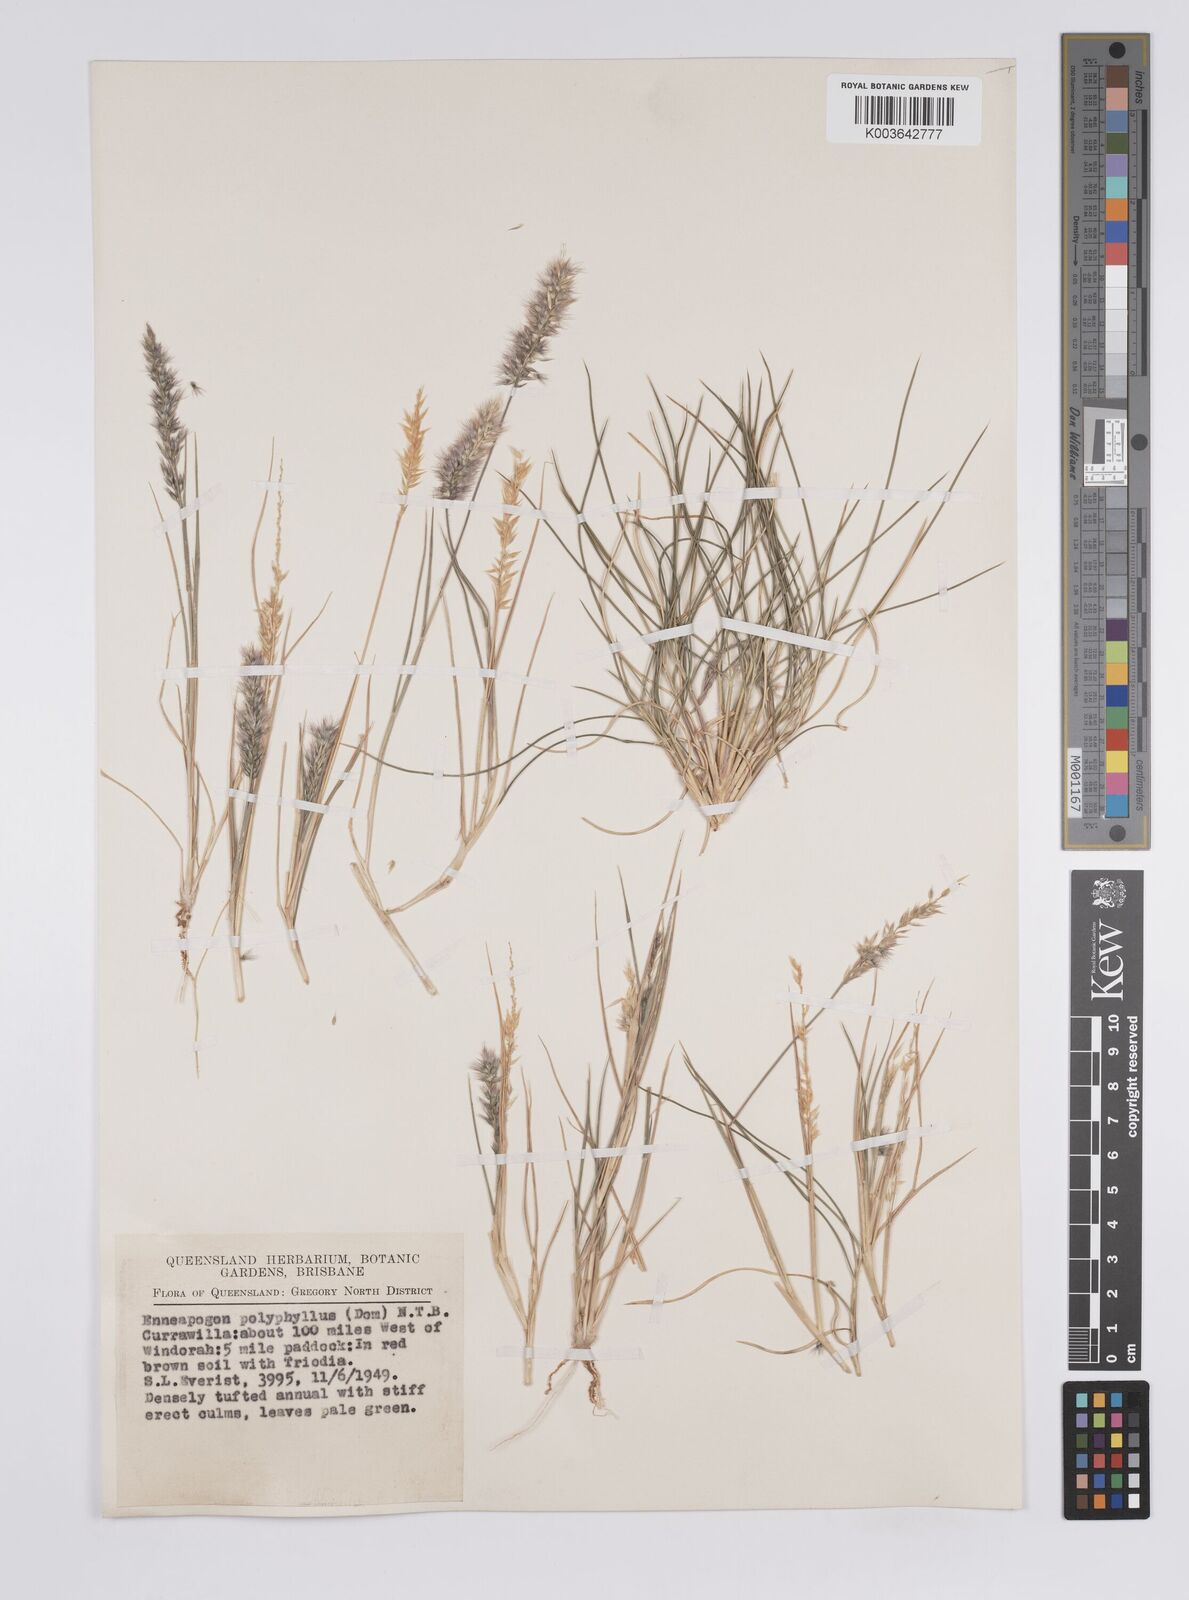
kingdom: Plantae
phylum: Tracheophyta
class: Liliopsida
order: Poales
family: Poaceae
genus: Enneapogon
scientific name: Enneapogon polyphyllus
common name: Leafy nineawn
